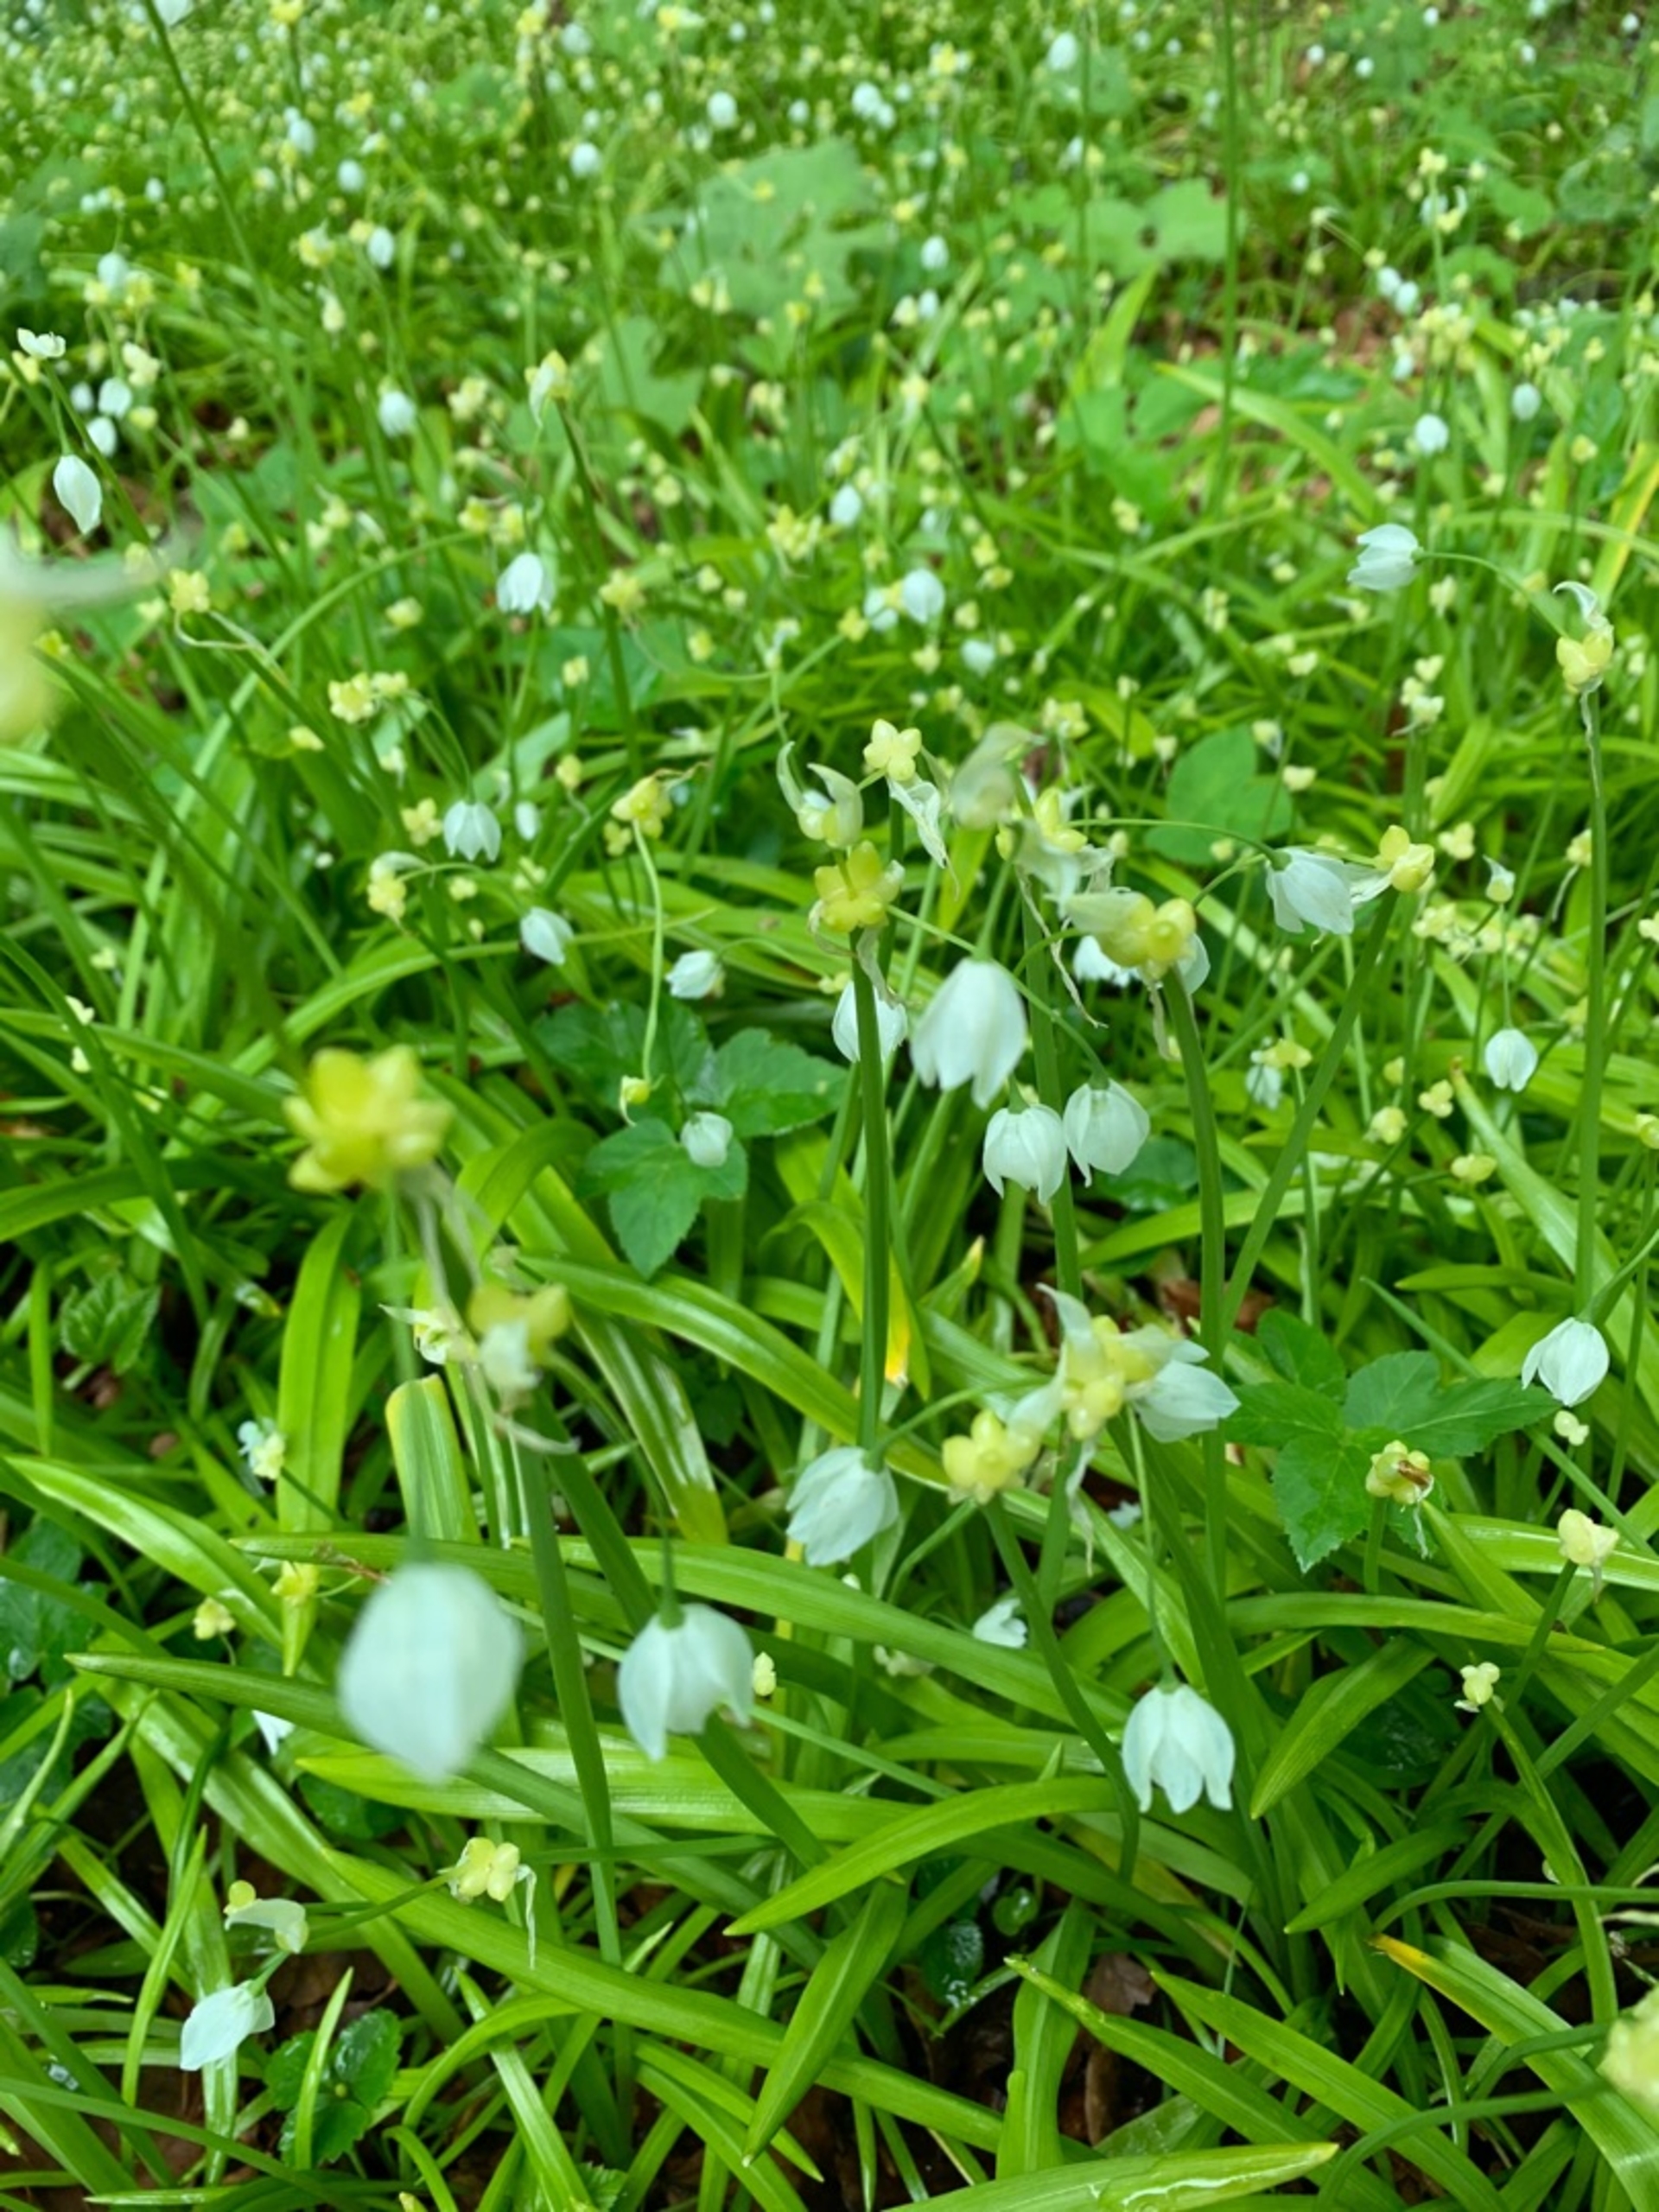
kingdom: Plantae
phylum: Tracheophyta
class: Liliopsida
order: Asparagales
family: Amaryllidaceae
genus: Allium
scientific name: Allium paradoxum
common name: Spøjs løg
